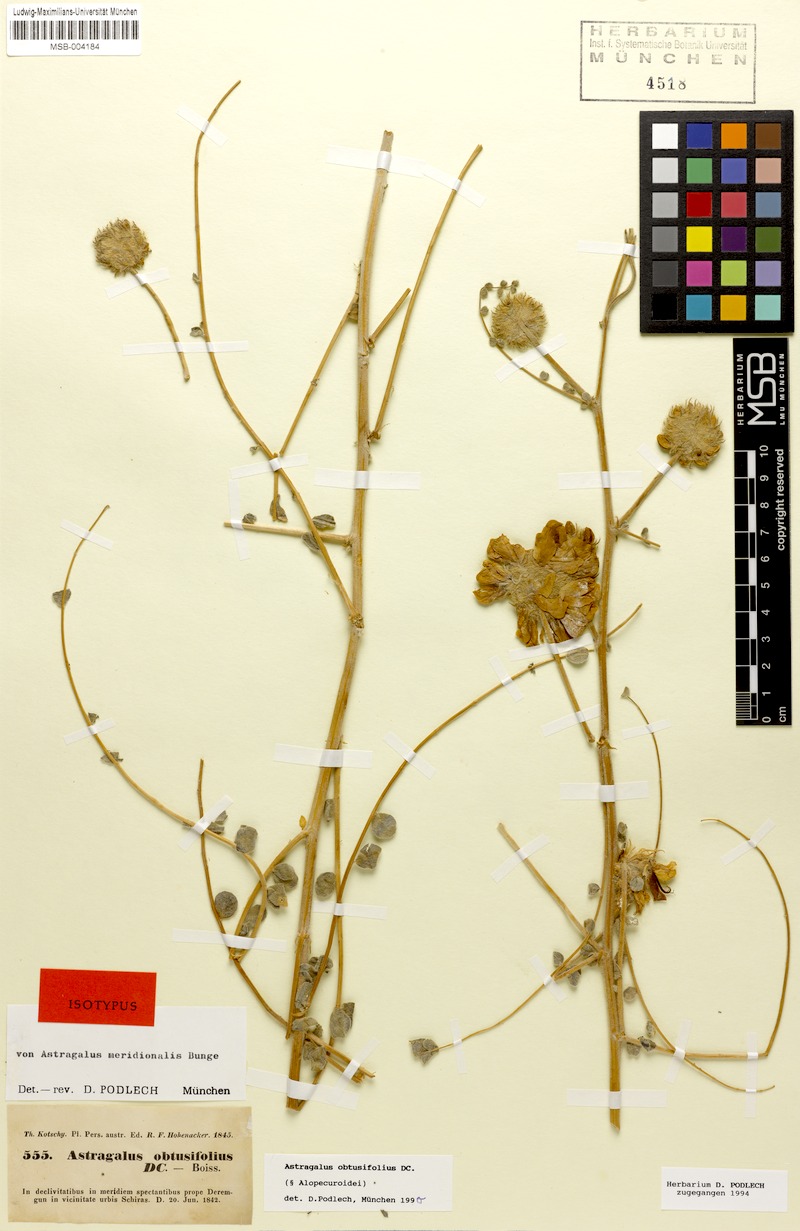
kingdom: Plantae
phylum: Tracheophyta
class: Magnoliopsida
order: Fabales
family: Fabaceae
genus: Astragalus
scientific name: Astragalus obtusifolius
